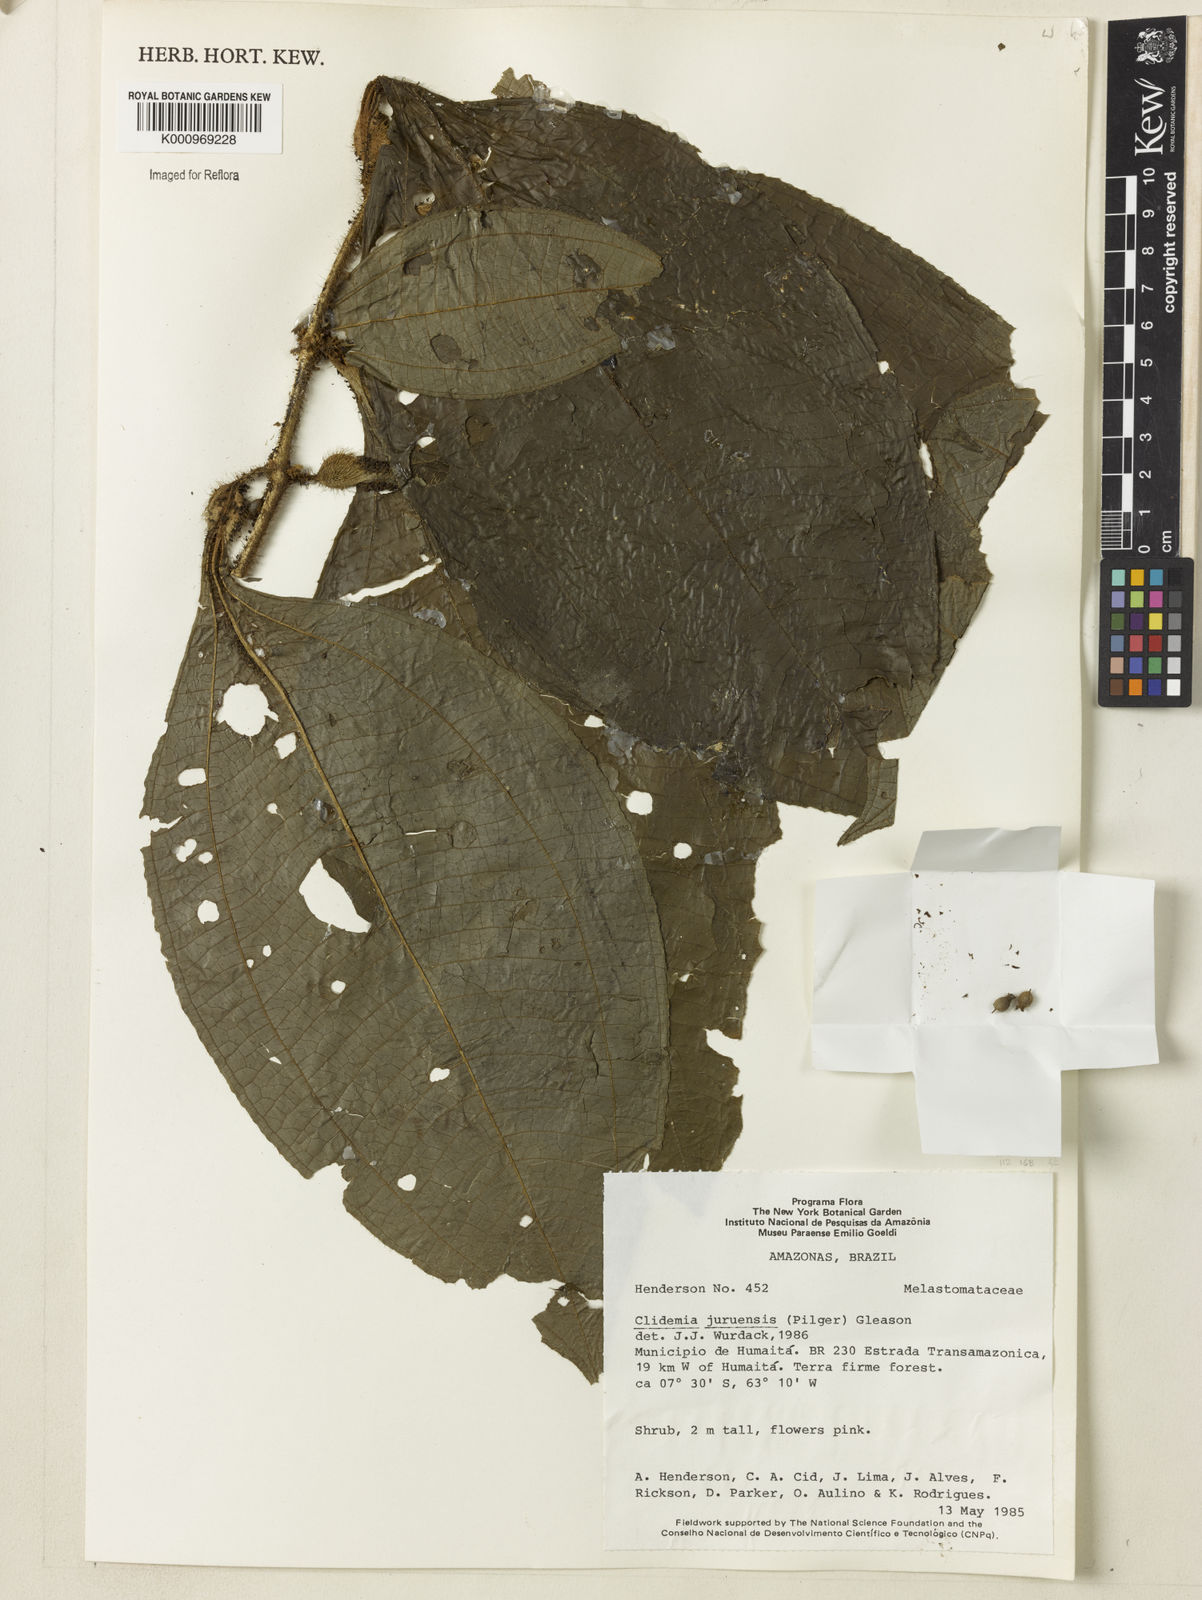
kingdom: Plantae
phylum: Tracheophyta
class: Magnoliopsida
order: Myrtales
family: Melastomataceae
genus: Miconia
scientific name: Miconia formicojuruensis
